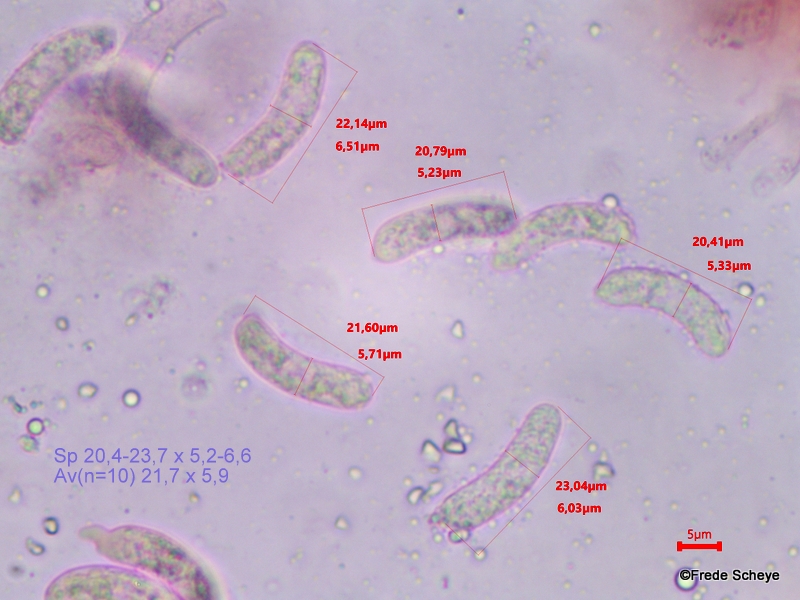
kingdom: Fungi
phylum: Basidiomycota
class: Agaricomycetes
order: Corticiales
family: Vuilleminiaceae
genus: Vuilleminia
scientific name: Vuilleminia coryli
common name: hassel-barksprænger
